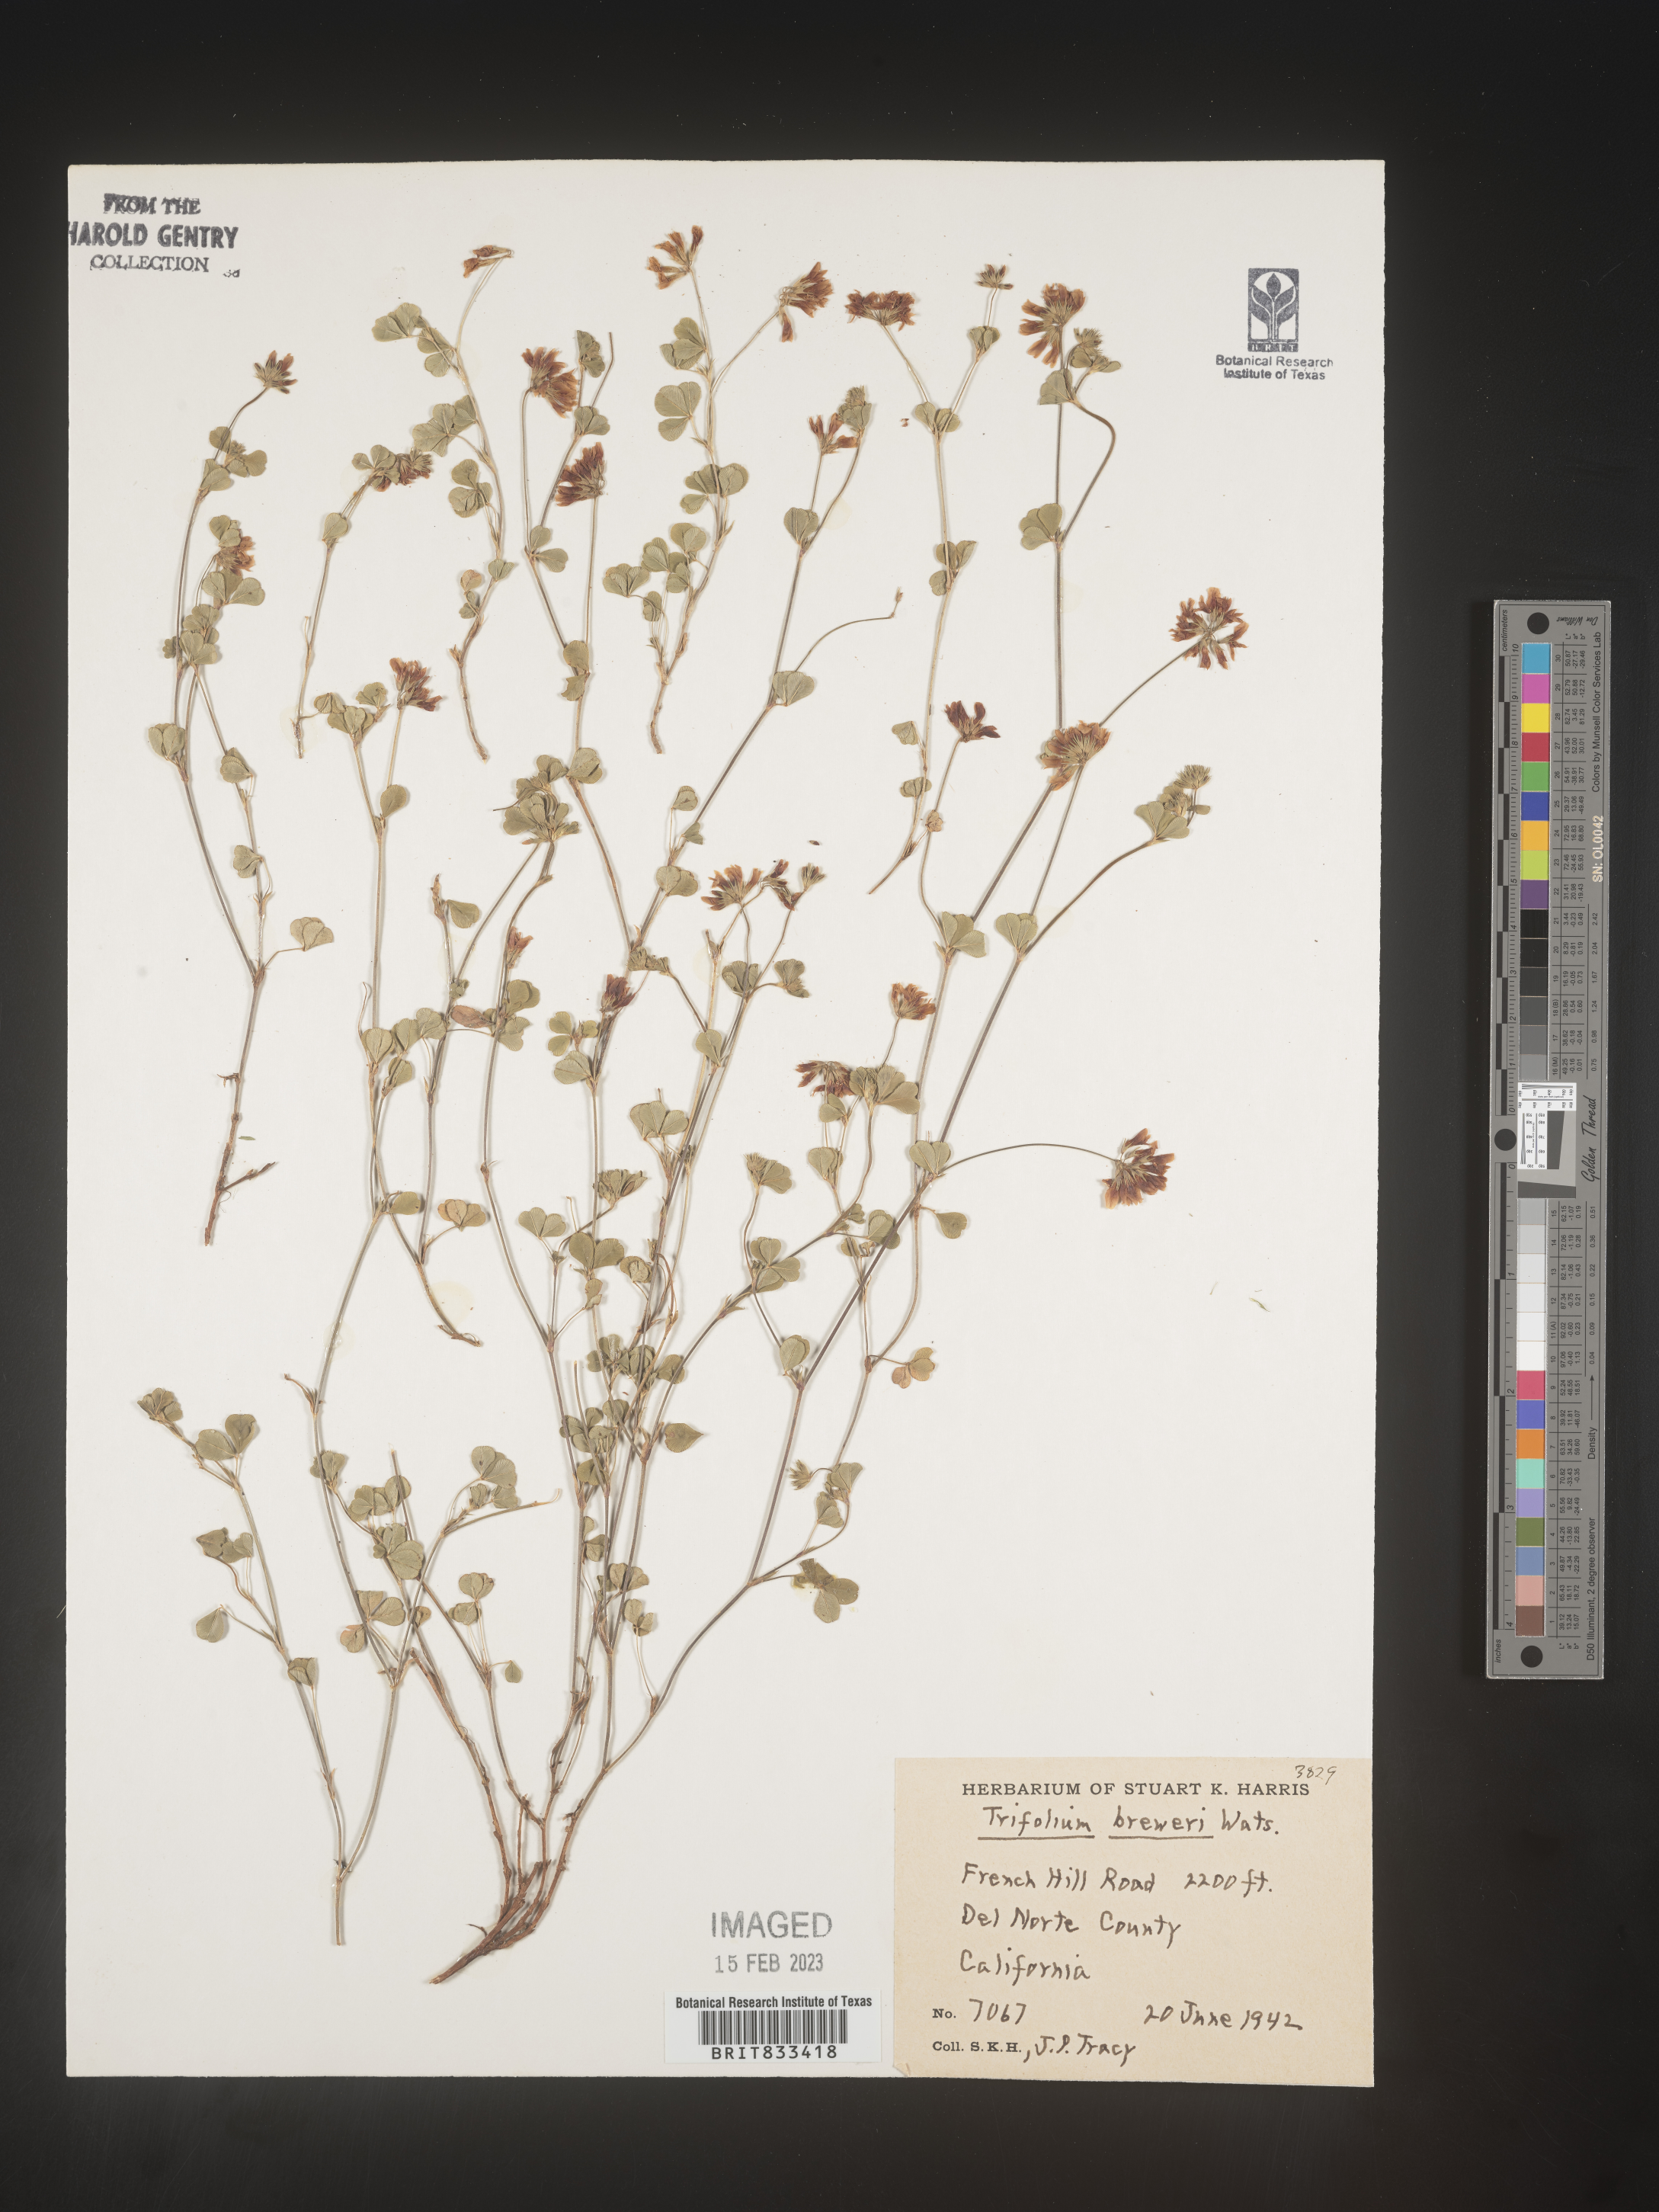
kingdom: Plantae
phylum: Tracheophyta
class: Magnoliopsida
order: Fabales
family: Fabaceae
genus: Trifolium
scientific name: Trifolium
